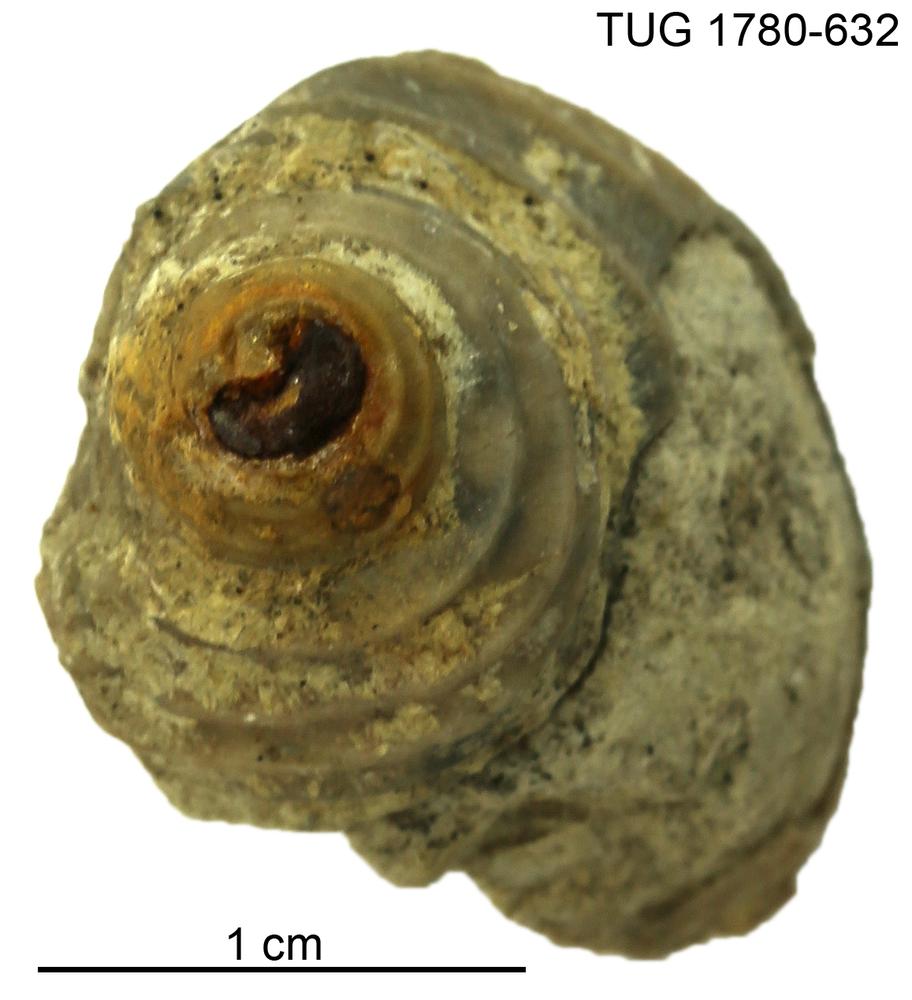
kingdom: Animalia
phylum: Mollusca
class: Gastropoda
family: Platyceratidae
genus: Cyclonema
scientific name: Cyclonema Turbo rupestre
